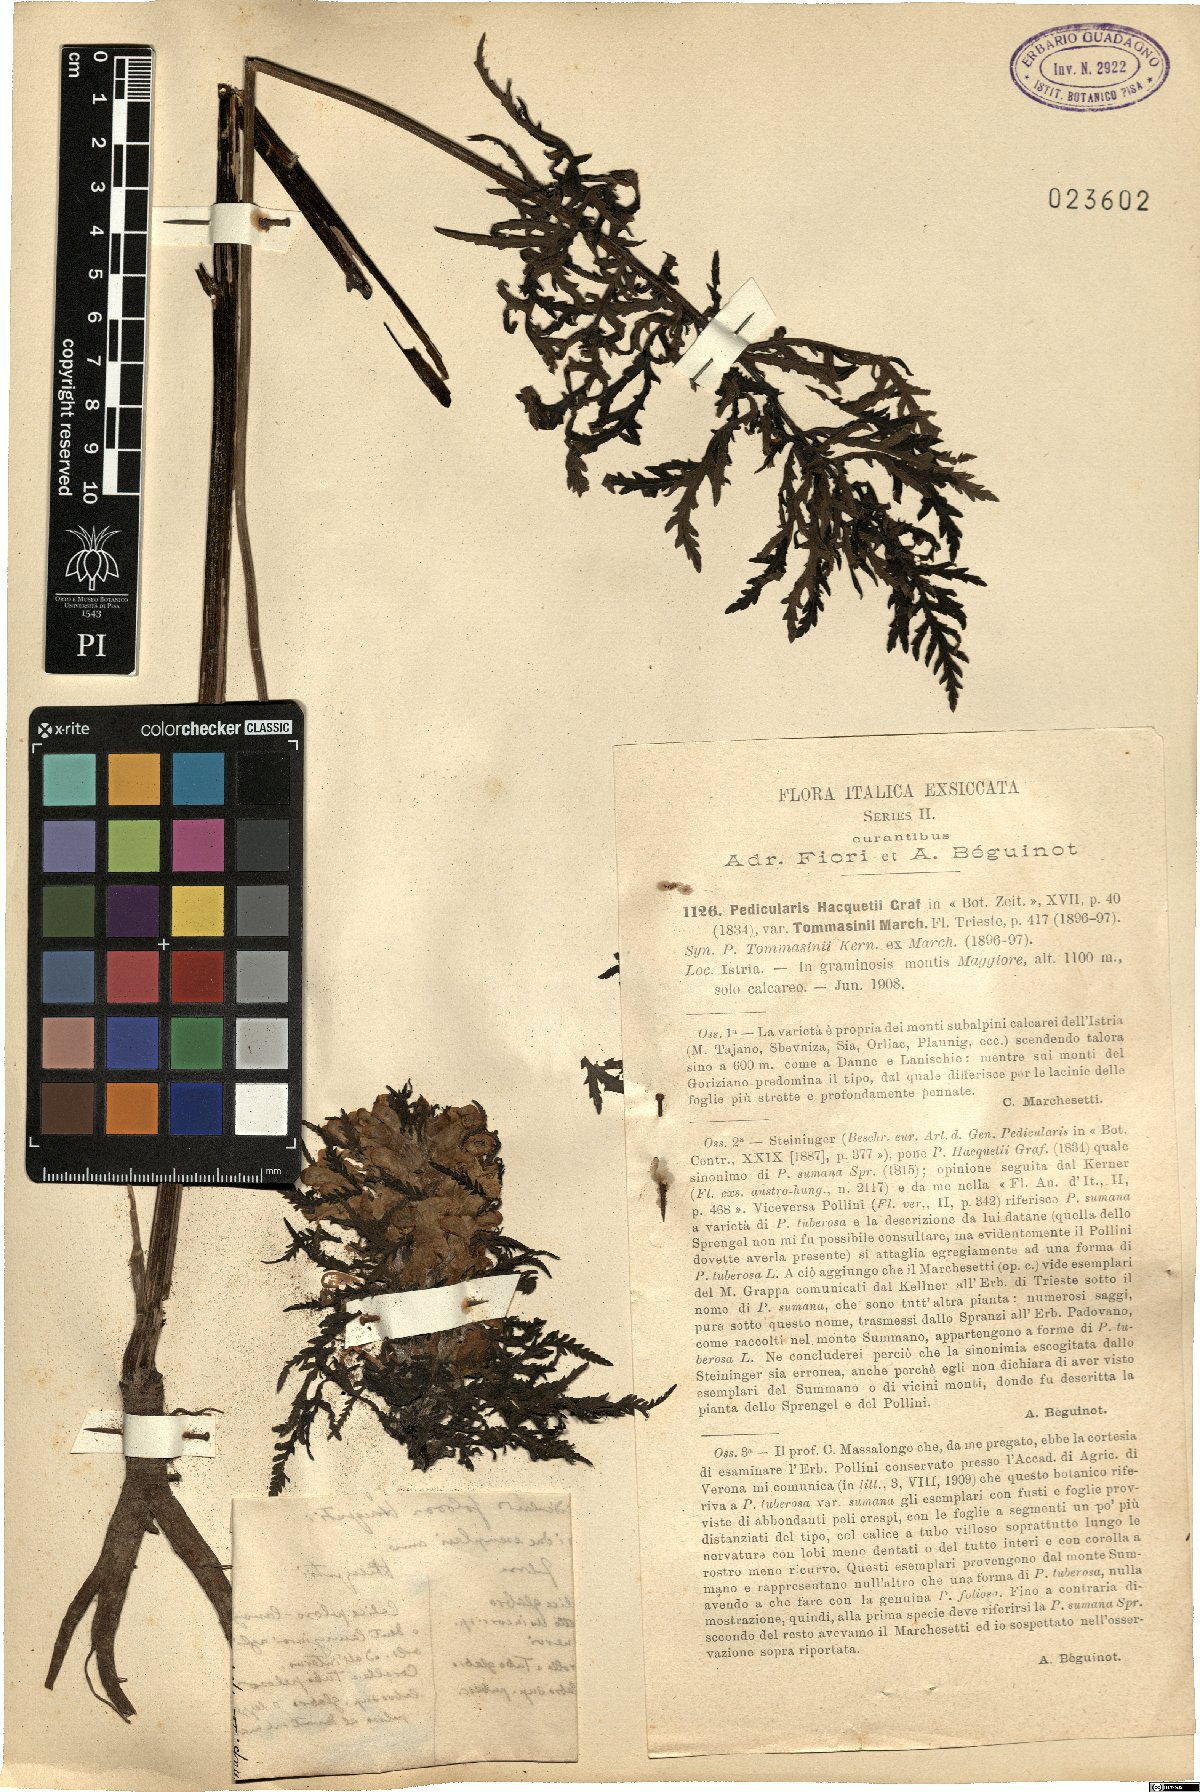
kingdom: Plantae
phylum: Tracheophyta
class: Magnoliopsida
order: Lamiales
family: Orobanchaceae
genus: Pedicularis
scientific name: Pedicularis hacquetii
